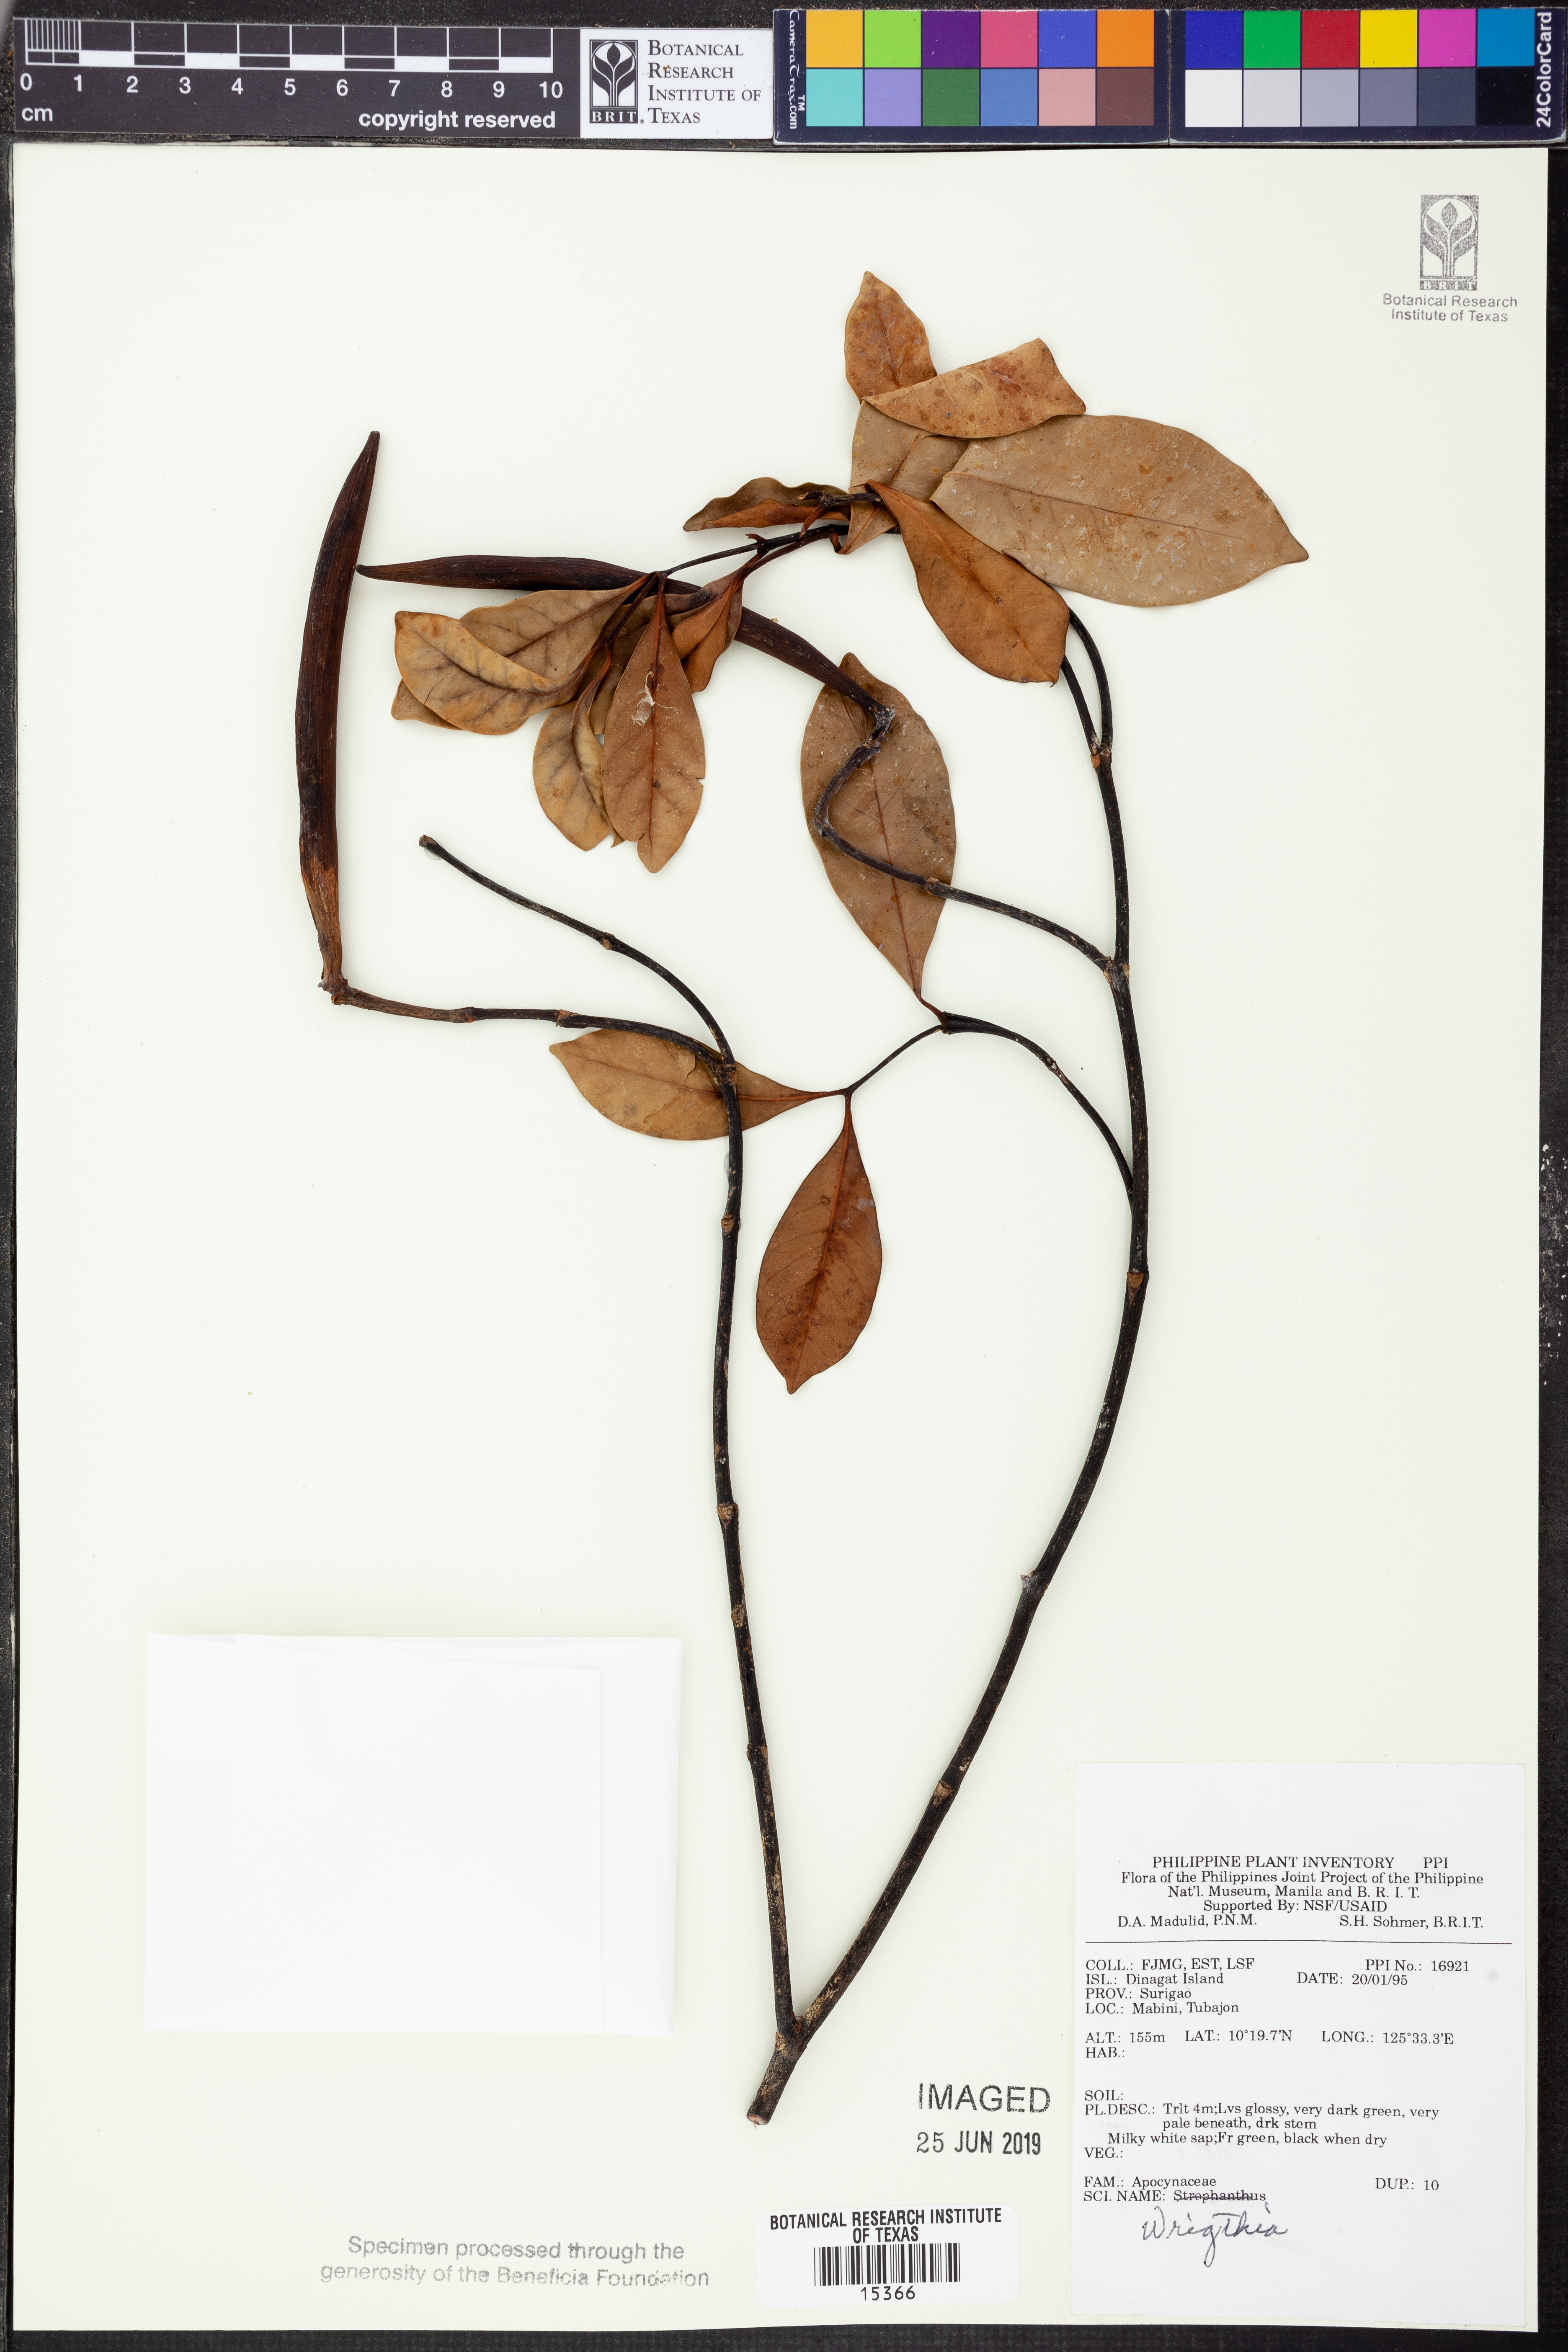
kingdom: Plantae
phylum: Tracheophyta
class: Magnoliopsida
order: Gentianales
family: Apocynaceae
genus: Wrightia
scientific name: Wrightia
